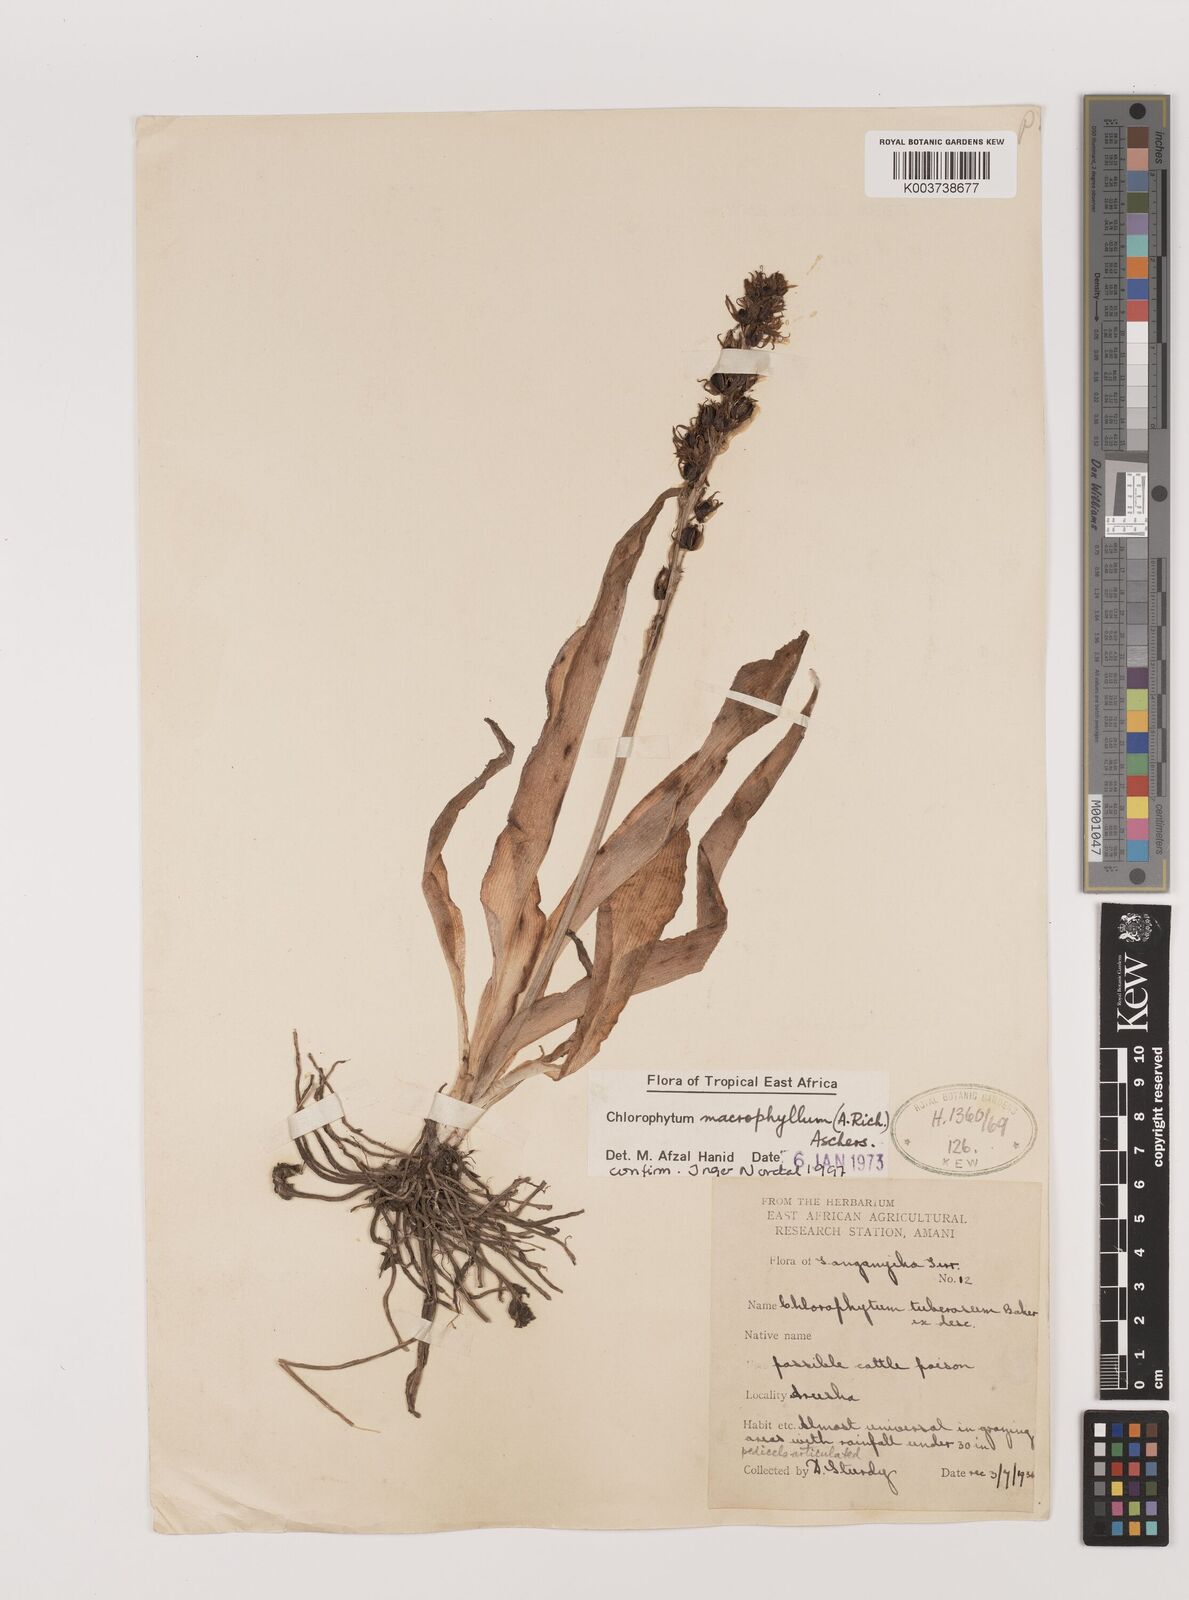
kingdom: Plantae
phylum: Tracheophyta
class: Liliopsida
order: Asparagales
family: Asparagaceae
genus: Chlorophytum
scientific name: Chlorophytum macrophyllum
